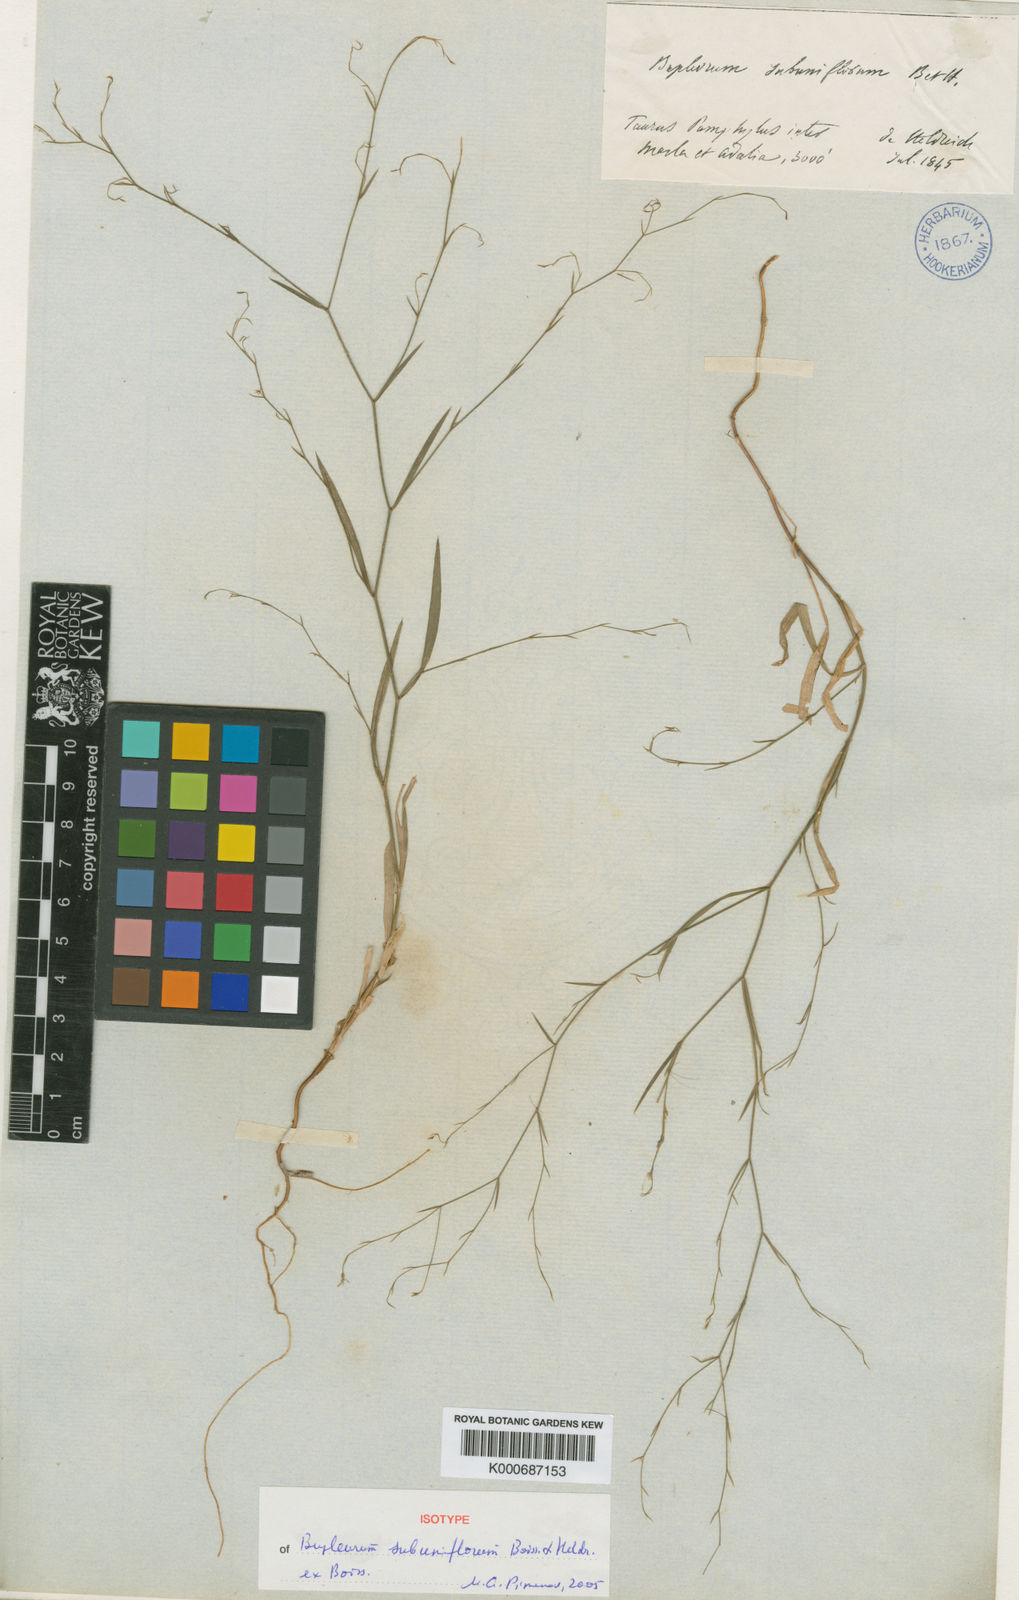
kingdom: Plantae
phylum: Tracheophyta
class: Magnoliopsida
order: Apiales
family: Apiaceae
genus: Bupleurum
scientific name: Bupleurum subuniflorum
